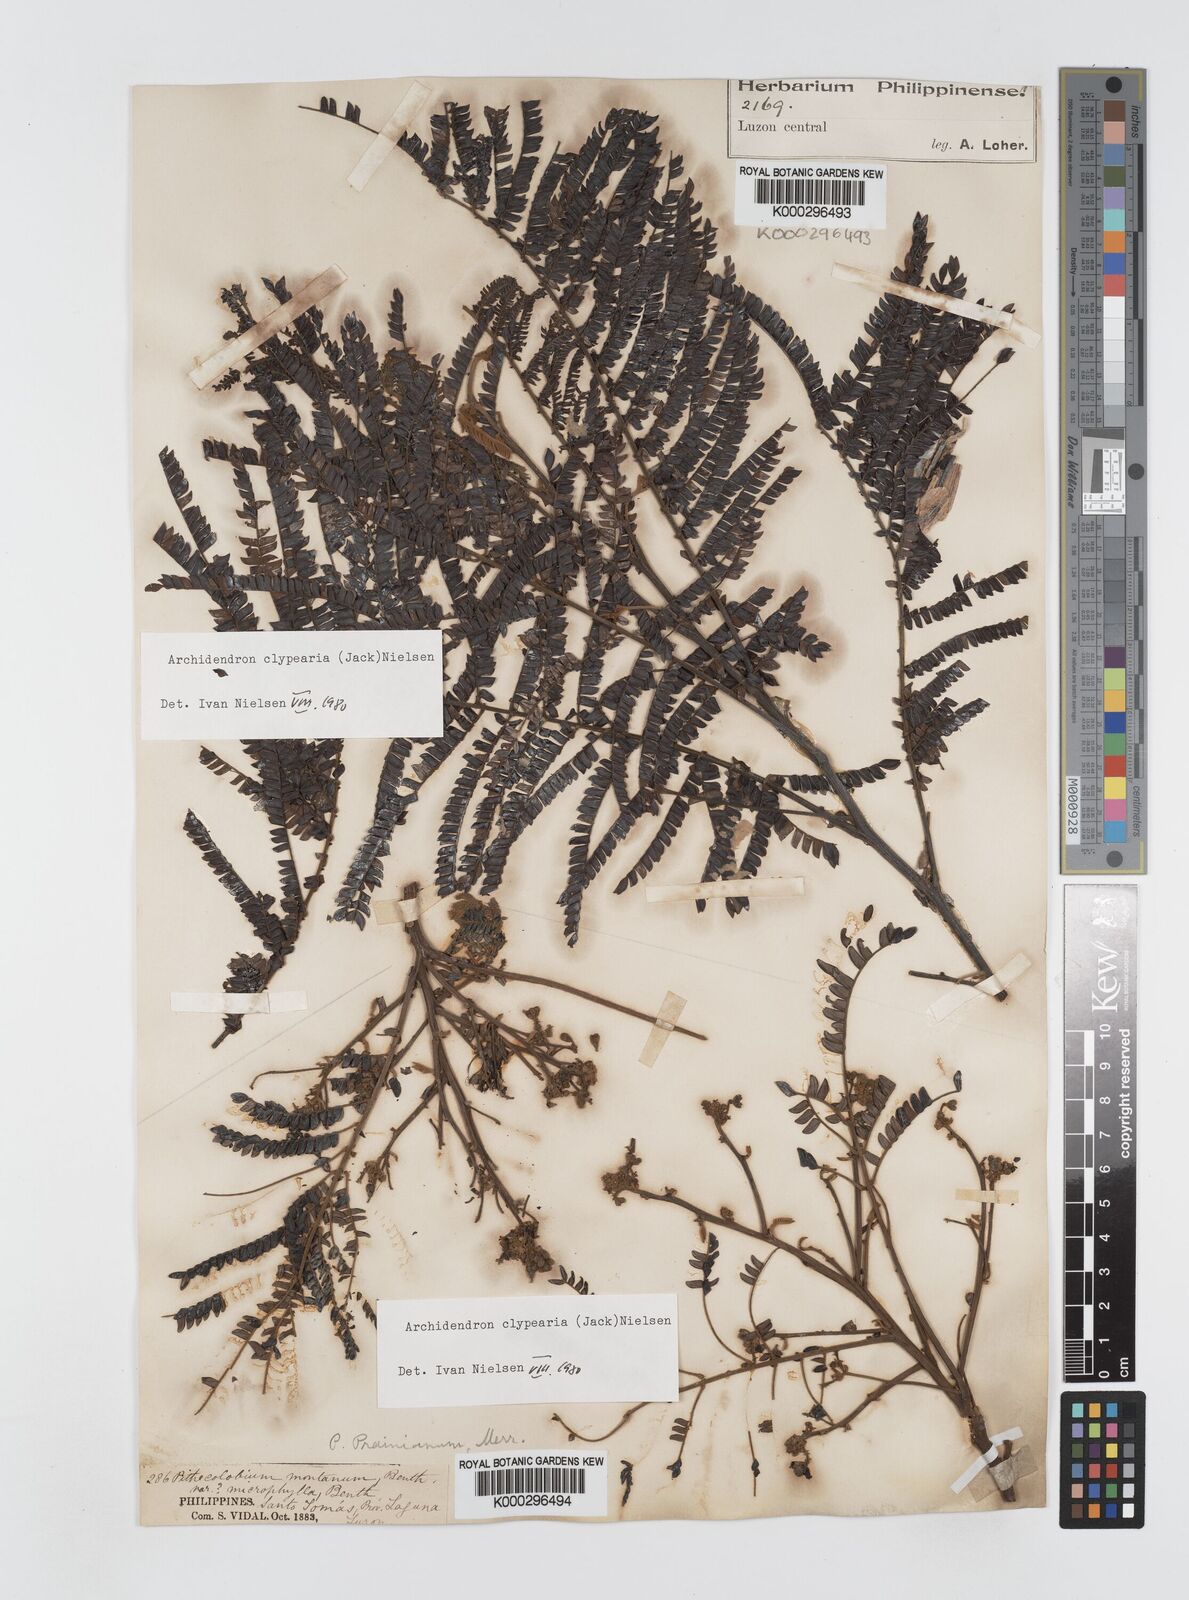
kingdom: Plantae
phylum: Tracheophyta
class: Magnoliopsida
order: Fabales
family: Fabaceae
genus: Archidendron
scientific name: Archidendron clypearia
